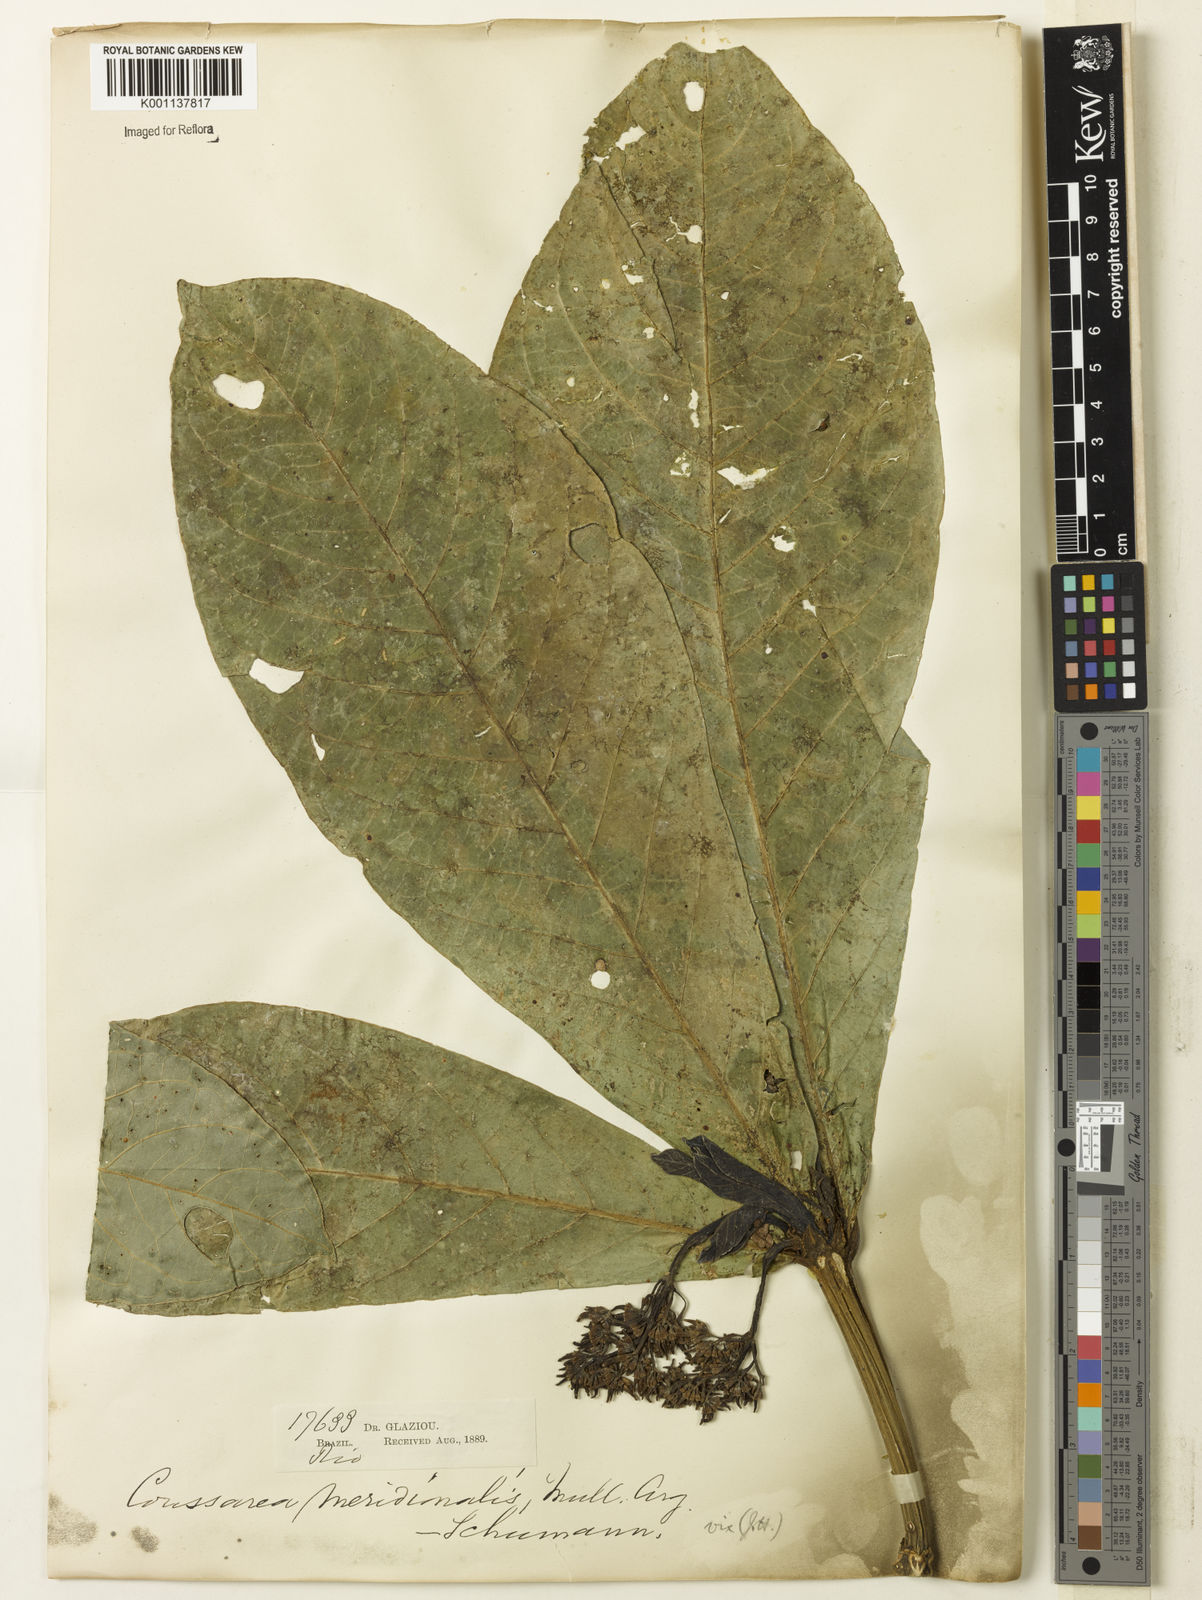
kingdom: Plantae
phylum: Tracheophyta
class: Magnoliopsida
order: Gentianales
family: Rubiaceae
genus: Coussarea
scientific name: Coussarea
